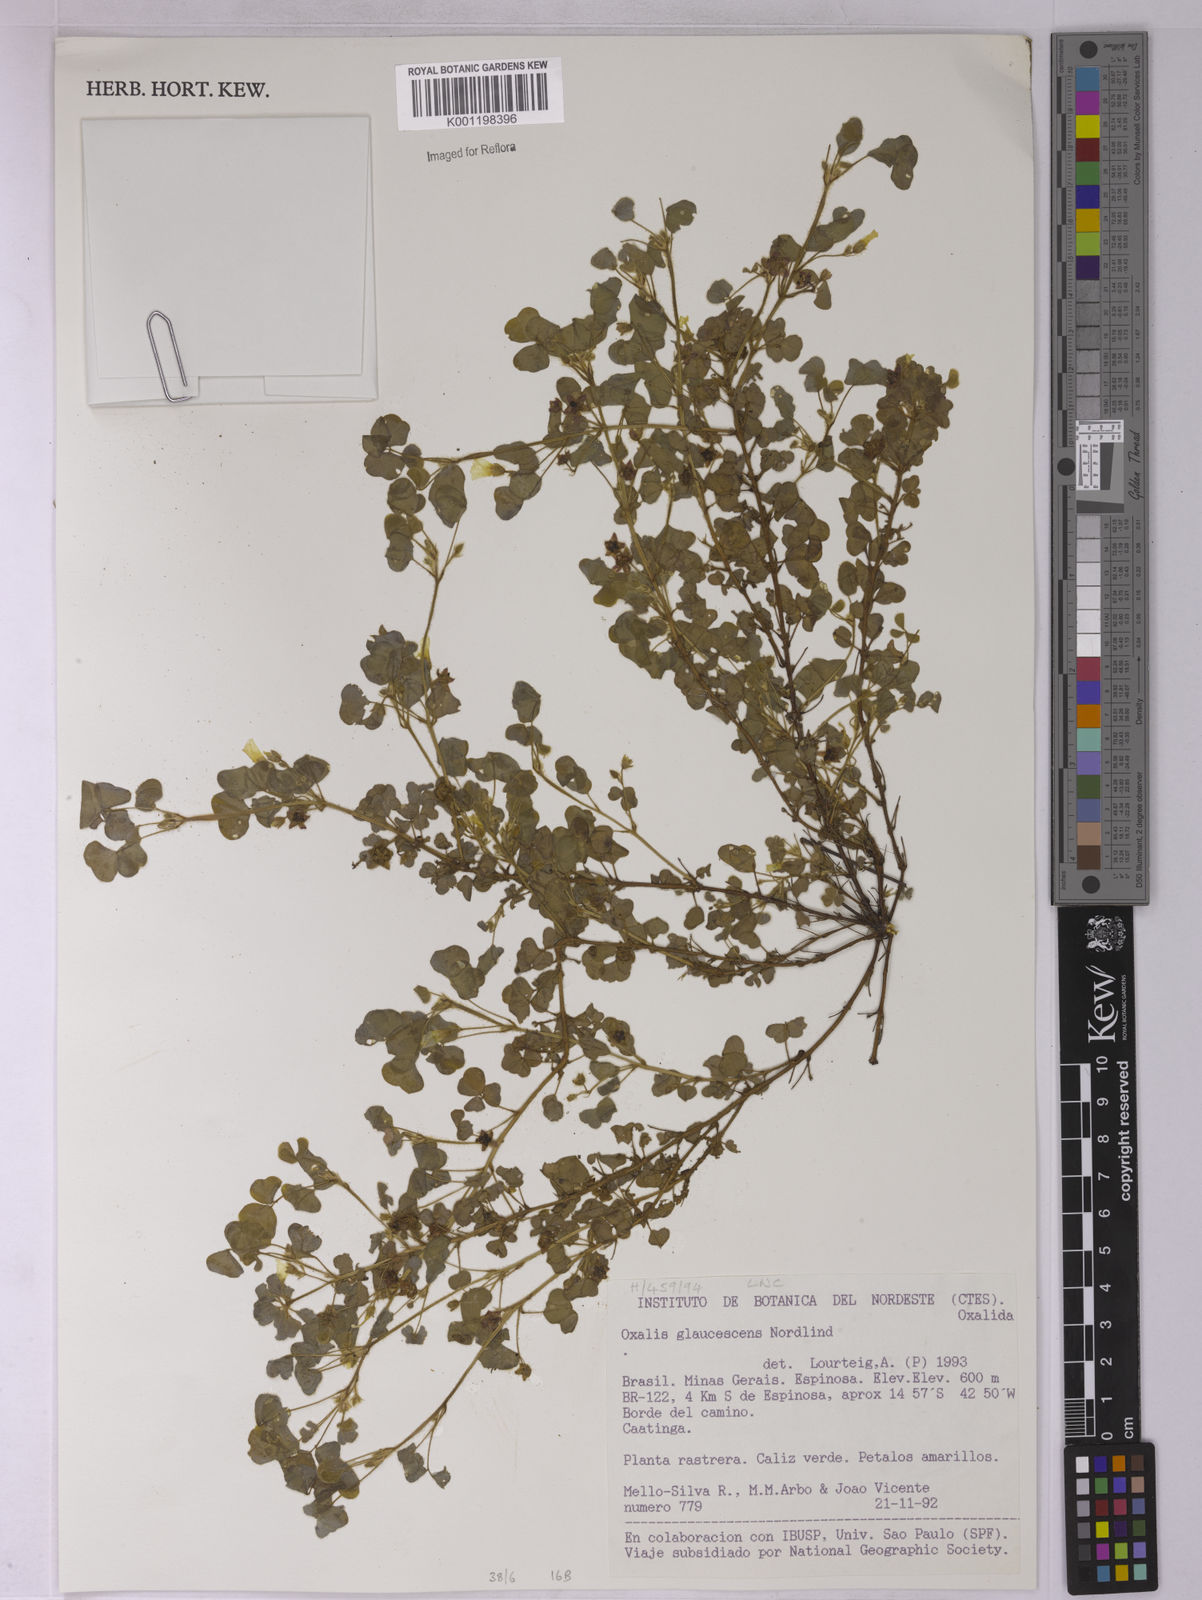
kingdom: Plantae
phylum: Tracheophyta
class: Magnoliopsida
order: Oxalidales
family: Oxalidaceae
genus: Oxalis
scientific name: Oxalis glaucescens
